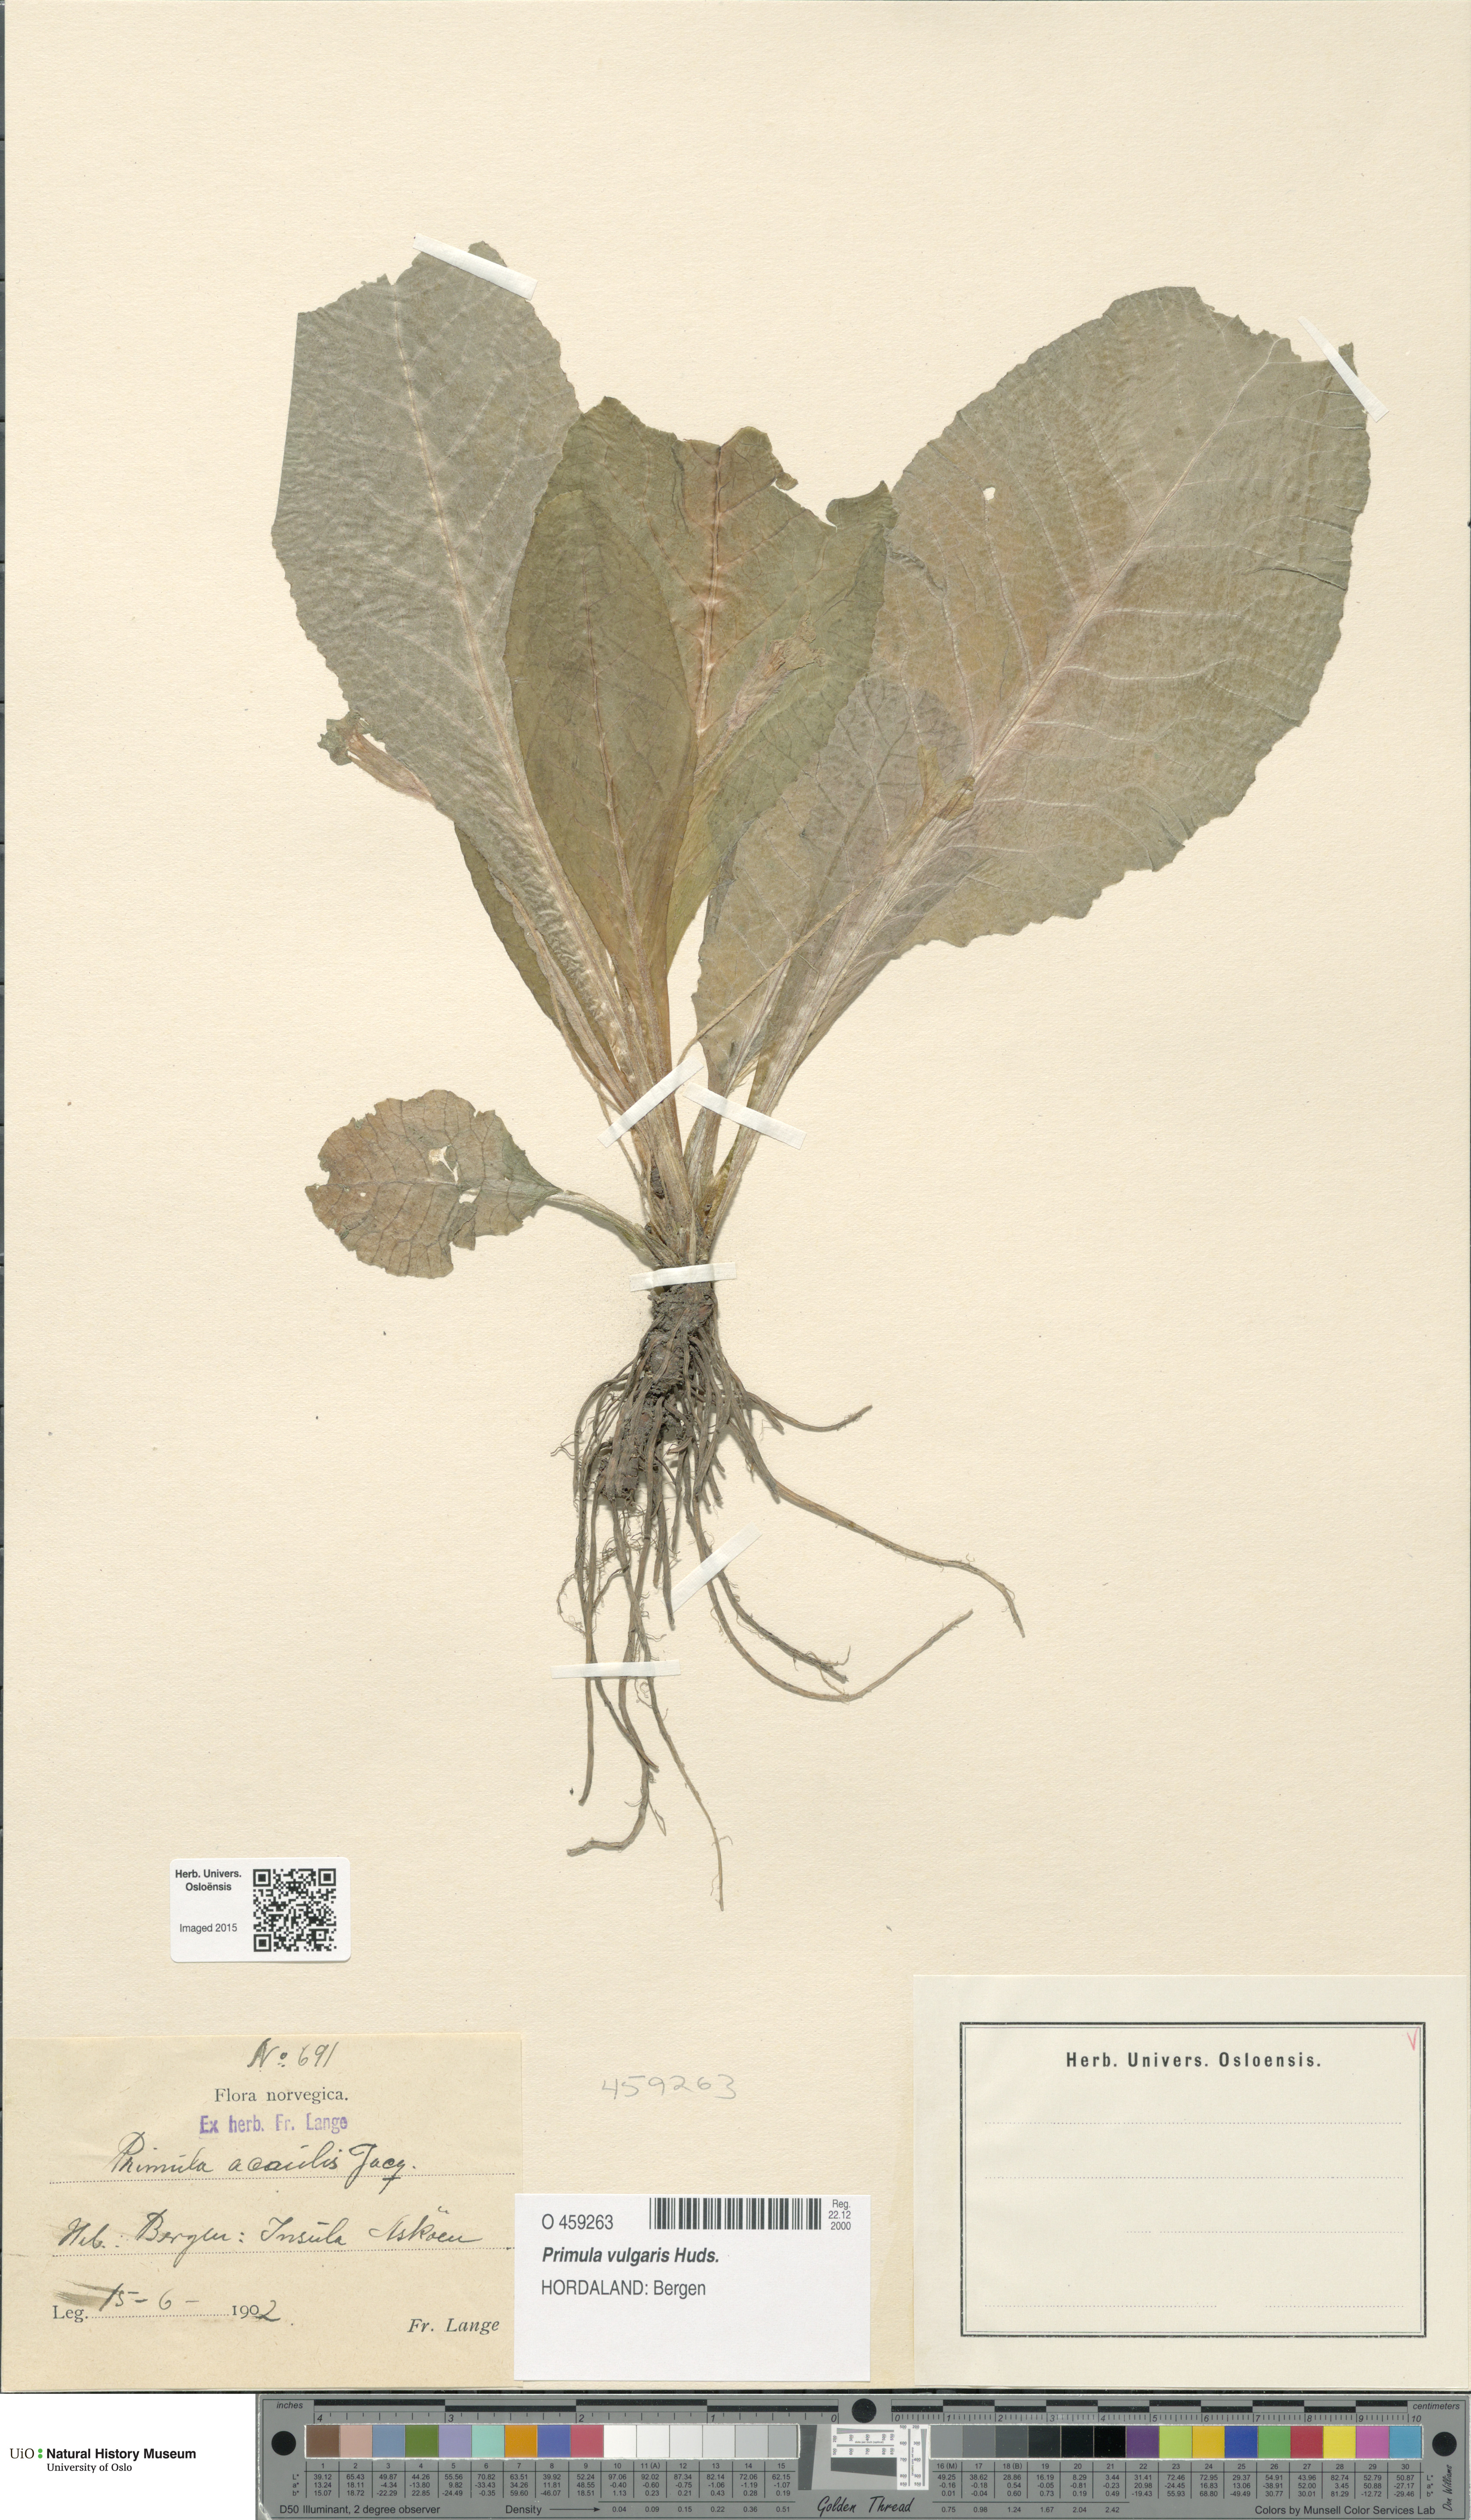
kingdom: Plantae
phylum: Tracheophyta
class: Magnoliopsida
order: Ericales
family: Primulaceae
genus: Primula
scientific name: Primula vulgaris
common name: Primrose
